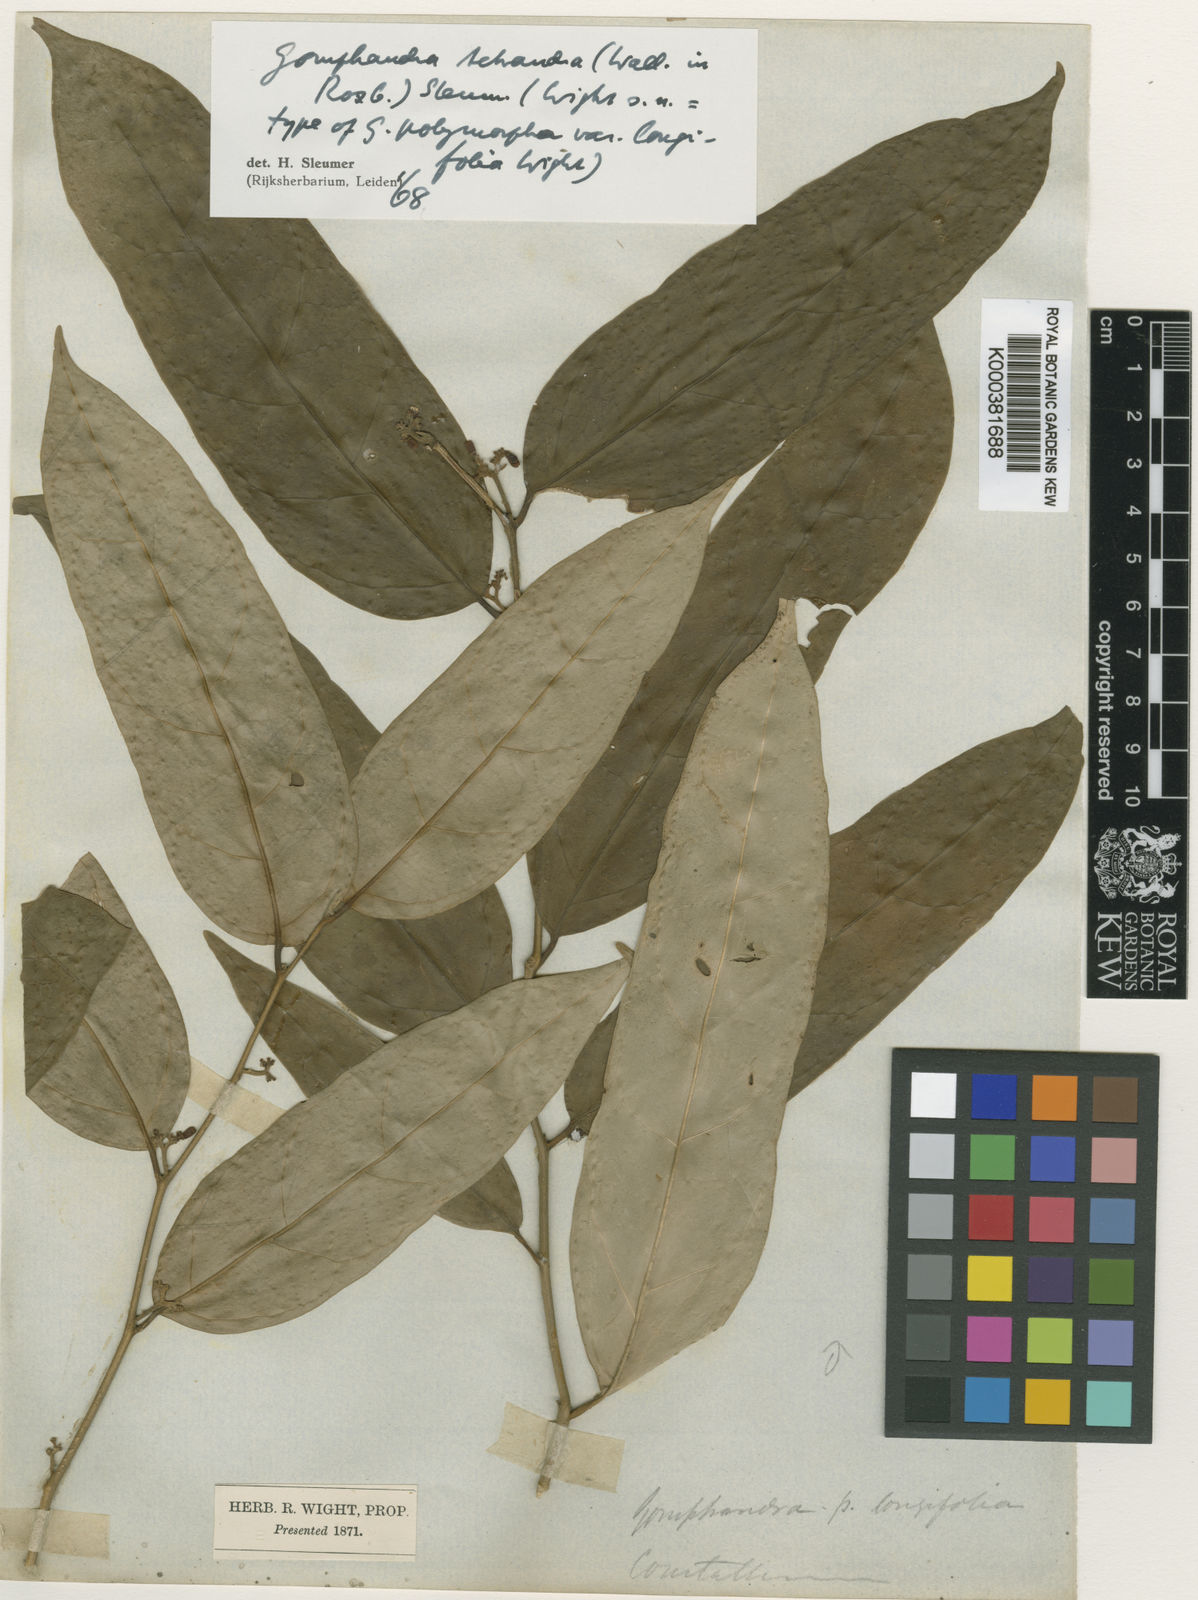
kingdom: Plantae
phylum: Tracheophyta
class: Magnoliopsida
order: Cardiopteridales
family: Stemonuraceae
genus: Gomphandra
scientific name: Gomphandra tetrandra
